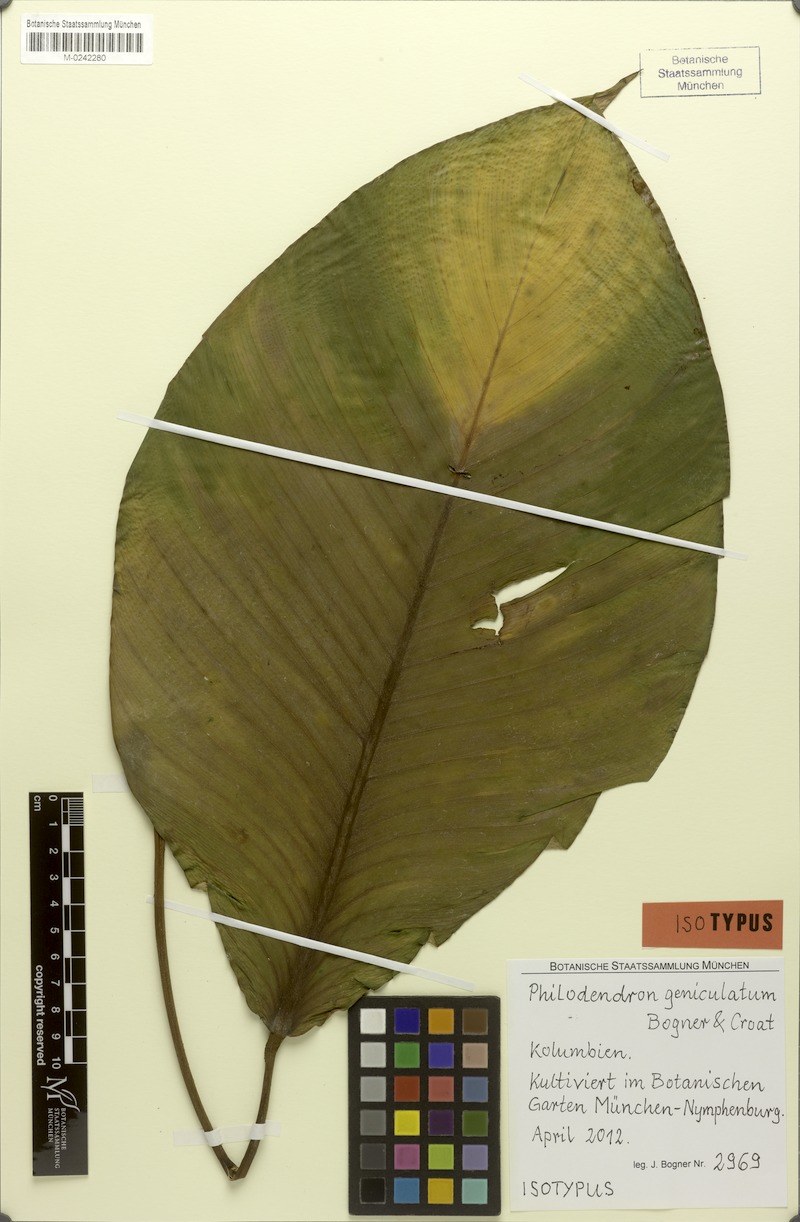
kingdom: Plantae
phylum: Tracheophyta
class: Liliopsida
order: Alismatales
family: Araceae
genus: Philodendron
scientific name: Philodendron geniculatum
